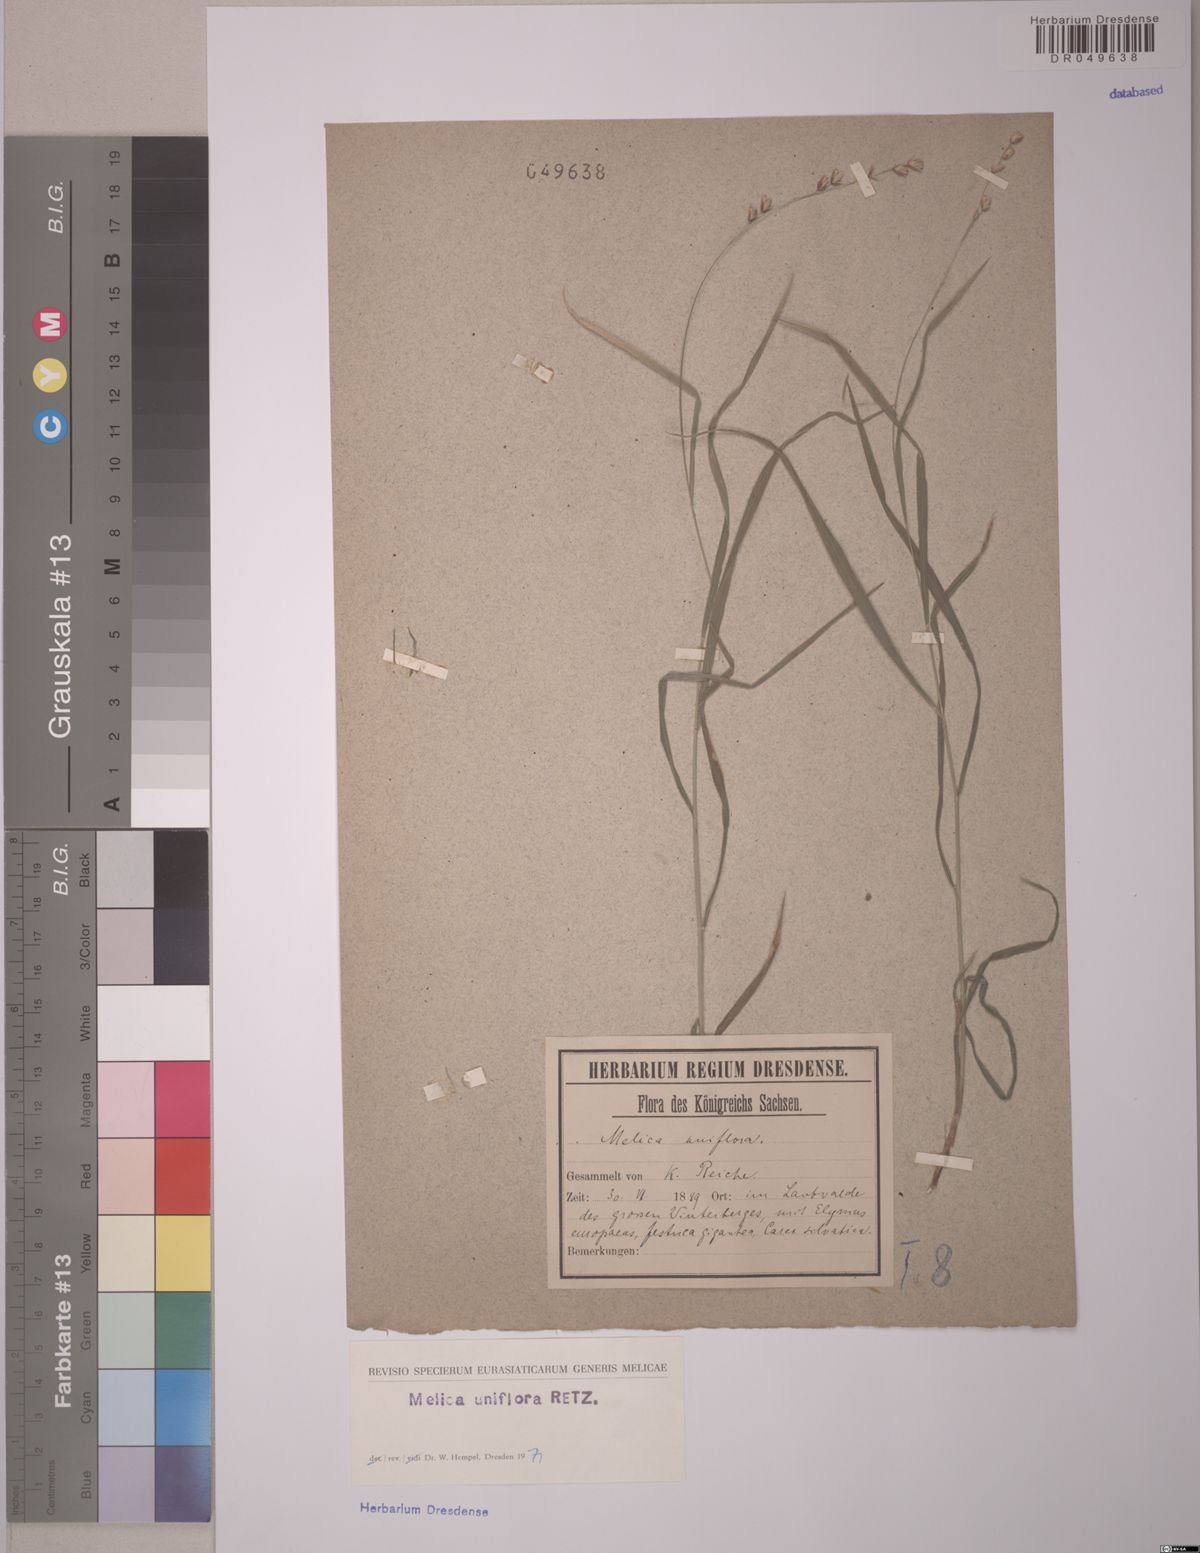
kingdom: Plantae
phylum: Tracheophyta
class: Liliopsida
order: Poales
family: Poaceae
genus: Melica
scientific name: Melica uniflora
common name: Wood melick
